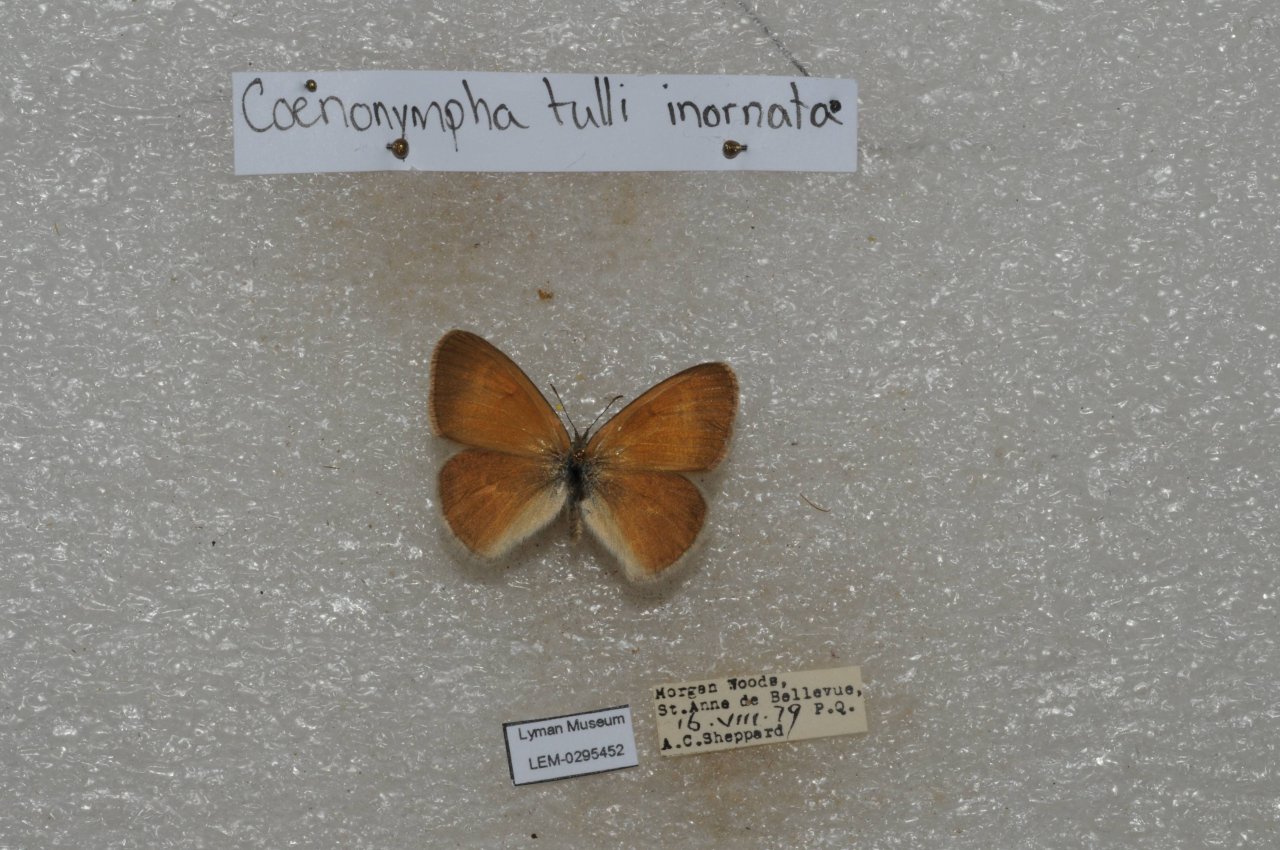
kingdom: Animalia
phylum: Arthropoda
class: Insecta
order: Lepidoptera
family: Nymphalidae
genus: Coenonympha
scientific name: Coenonympha tullia
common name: Large Heath
